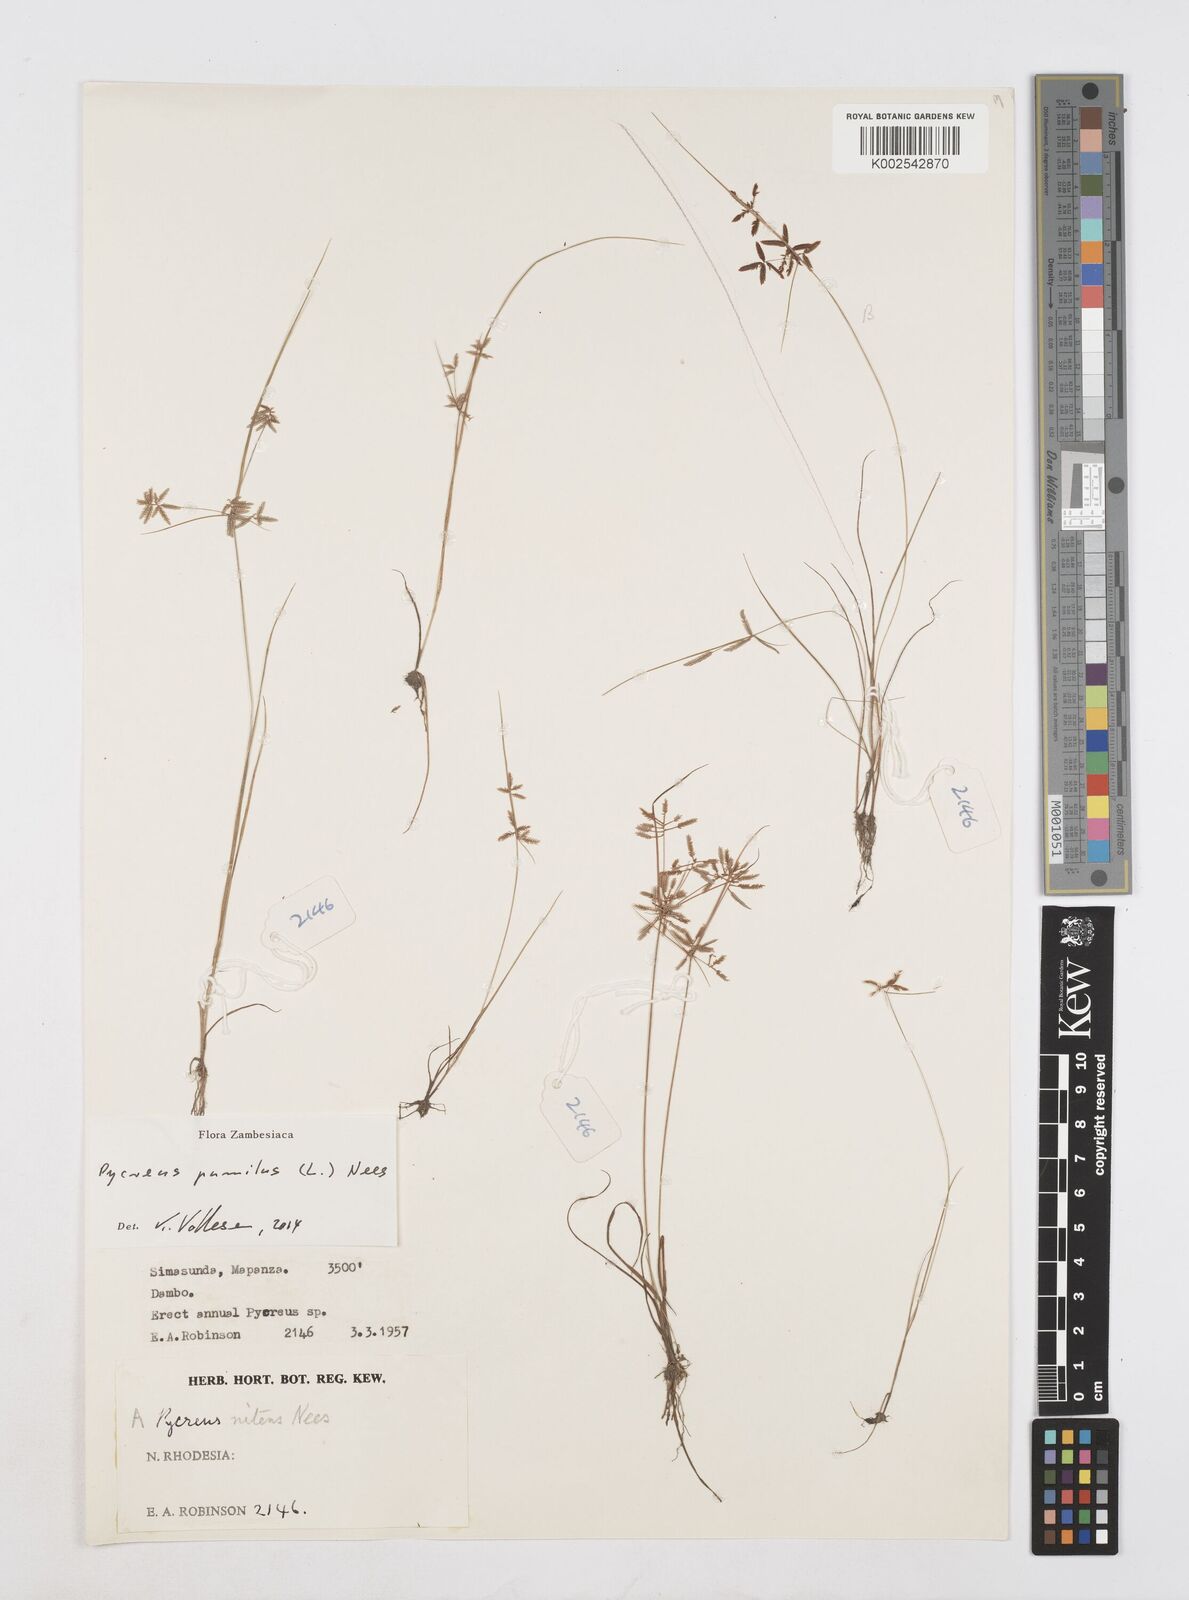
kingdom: Plantae
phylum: Tracheophyta
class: Liliopsida
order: Poales
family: Cyperaceae
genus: Cyperus
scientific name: Cyperus pumilus
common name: Low flatsedge
